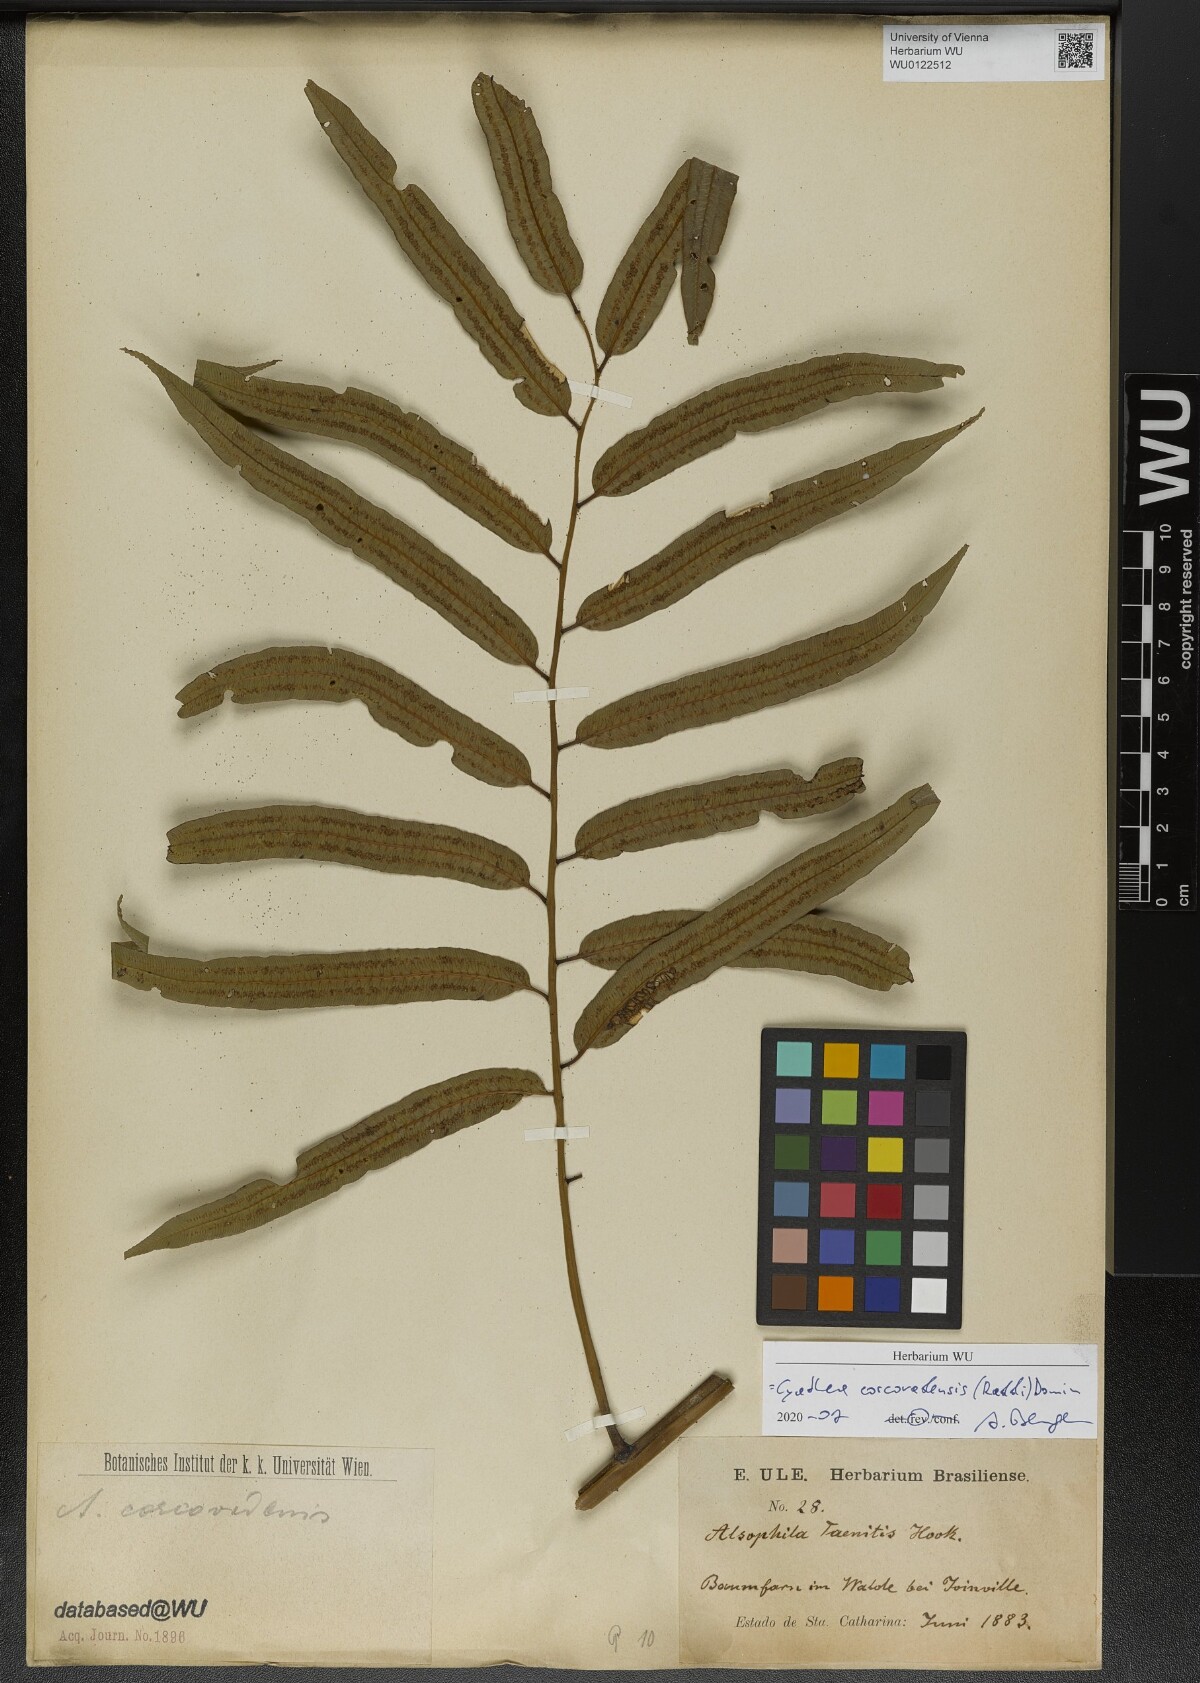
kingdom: Plantae
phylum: Tracheophyta
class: Polypodiopsida
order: Cyatheales
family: Cyatheaceae
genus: Cyathea
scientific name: Cyathea corcovadensis
